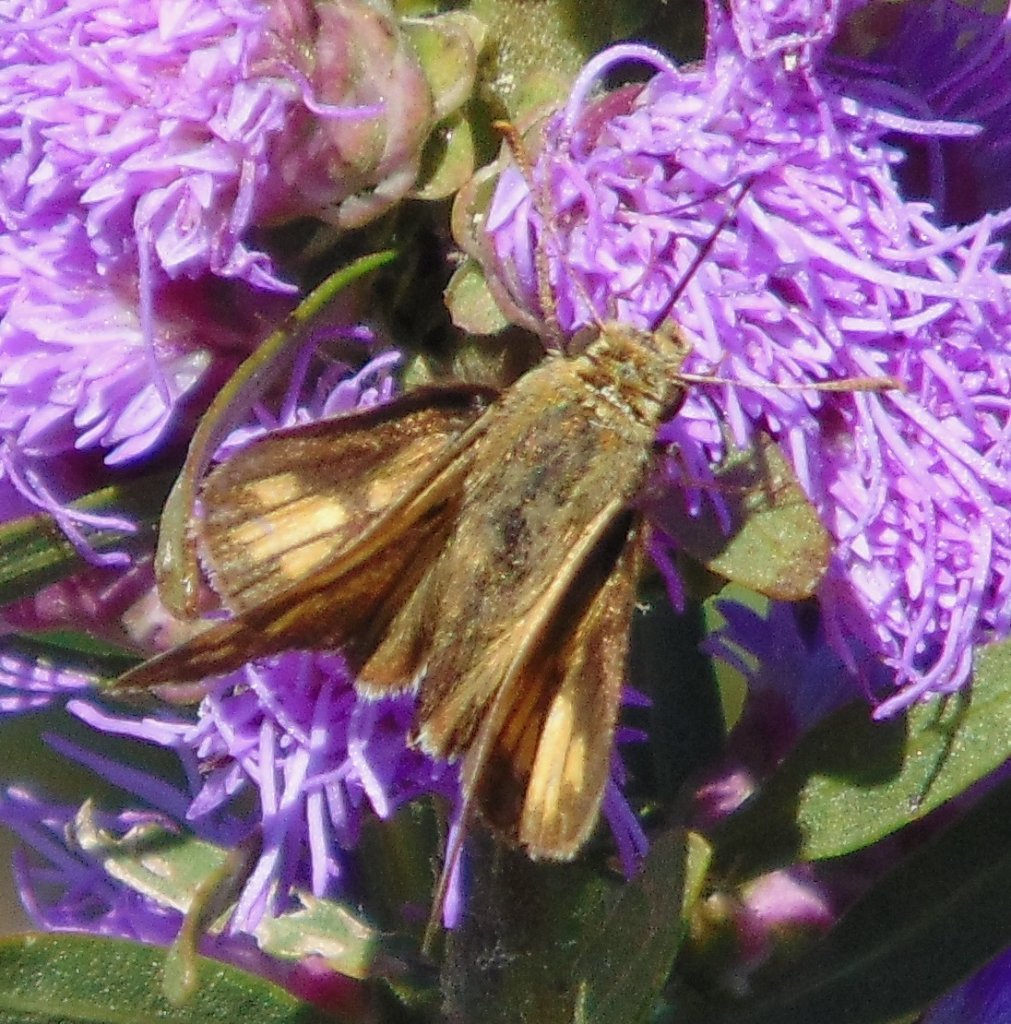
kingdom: Animalia
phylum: Arthropoda
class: Insecta
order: Lepidoptera
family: Hesperiidae
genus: Polites
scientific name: Polites coras
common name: Peck's Skipper
